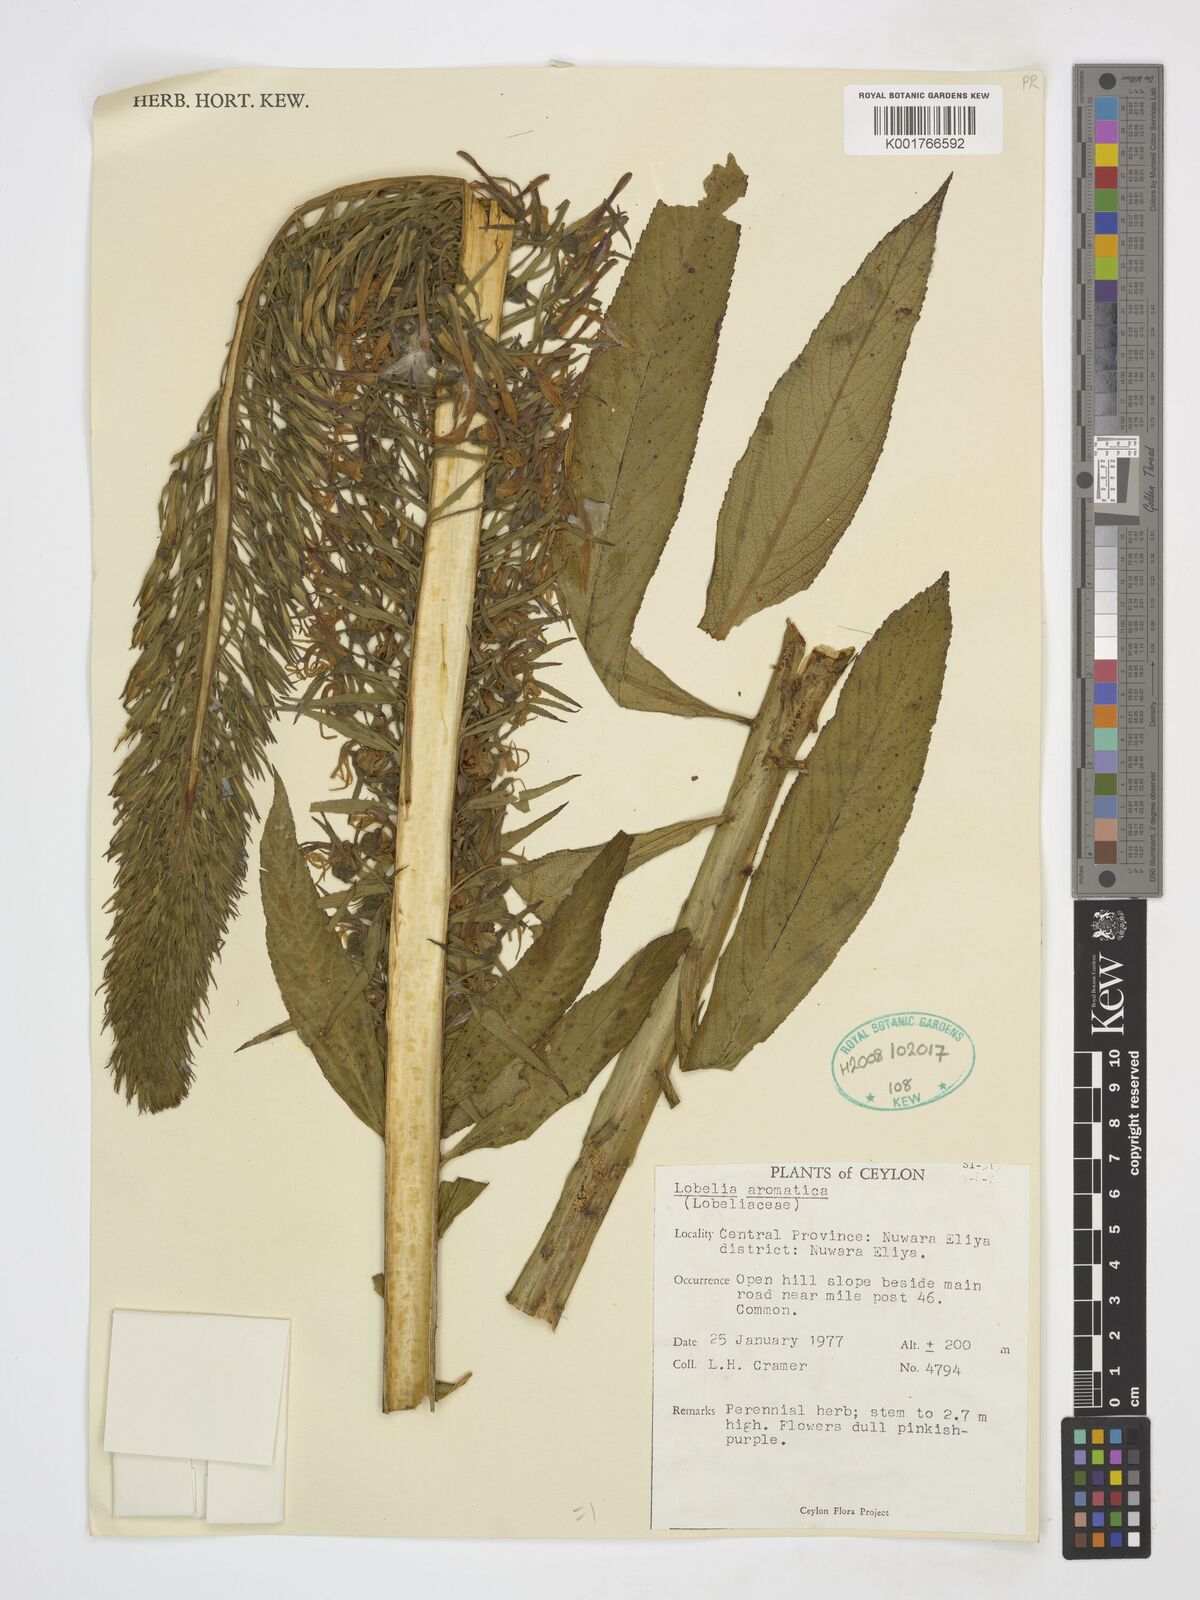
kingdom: Plantae
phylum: Tracheophyta
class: Magnoliopsida
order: Asterales
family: Campanulaceae
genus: Lobelia
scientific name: Lobelia
